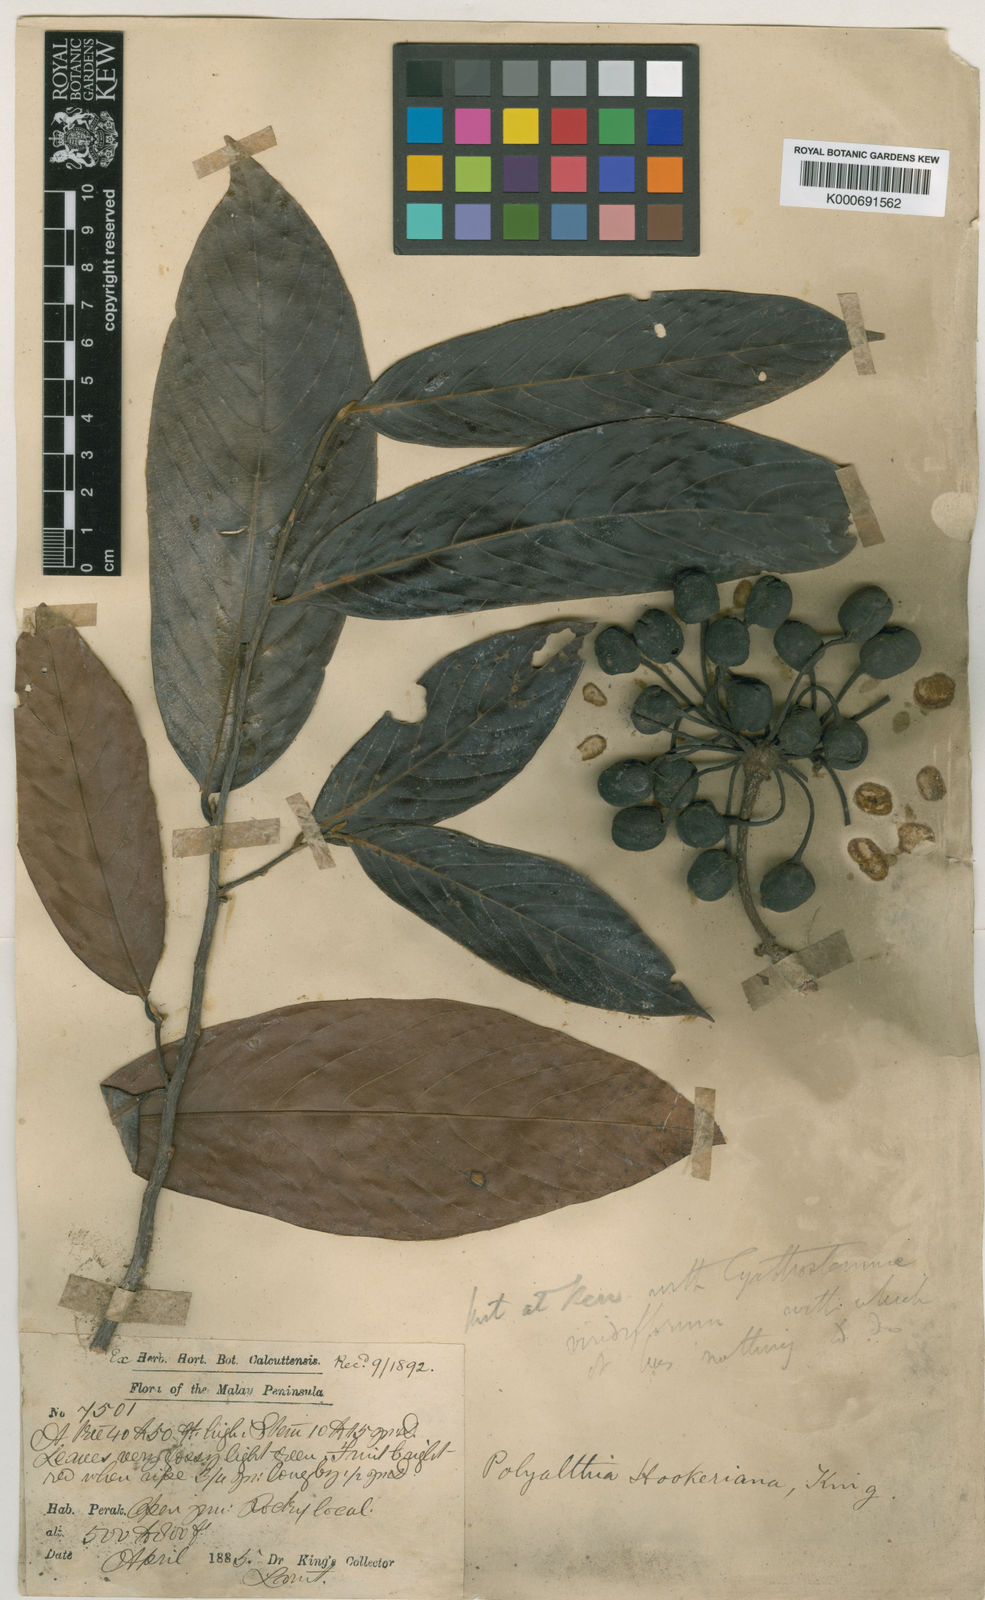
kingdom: Plantae
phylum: Tracheophyta
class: Magnoliopsida
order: Magnoliales
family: Annonaceae
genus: Polyalthia
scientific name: Polyalthia hookeriana
